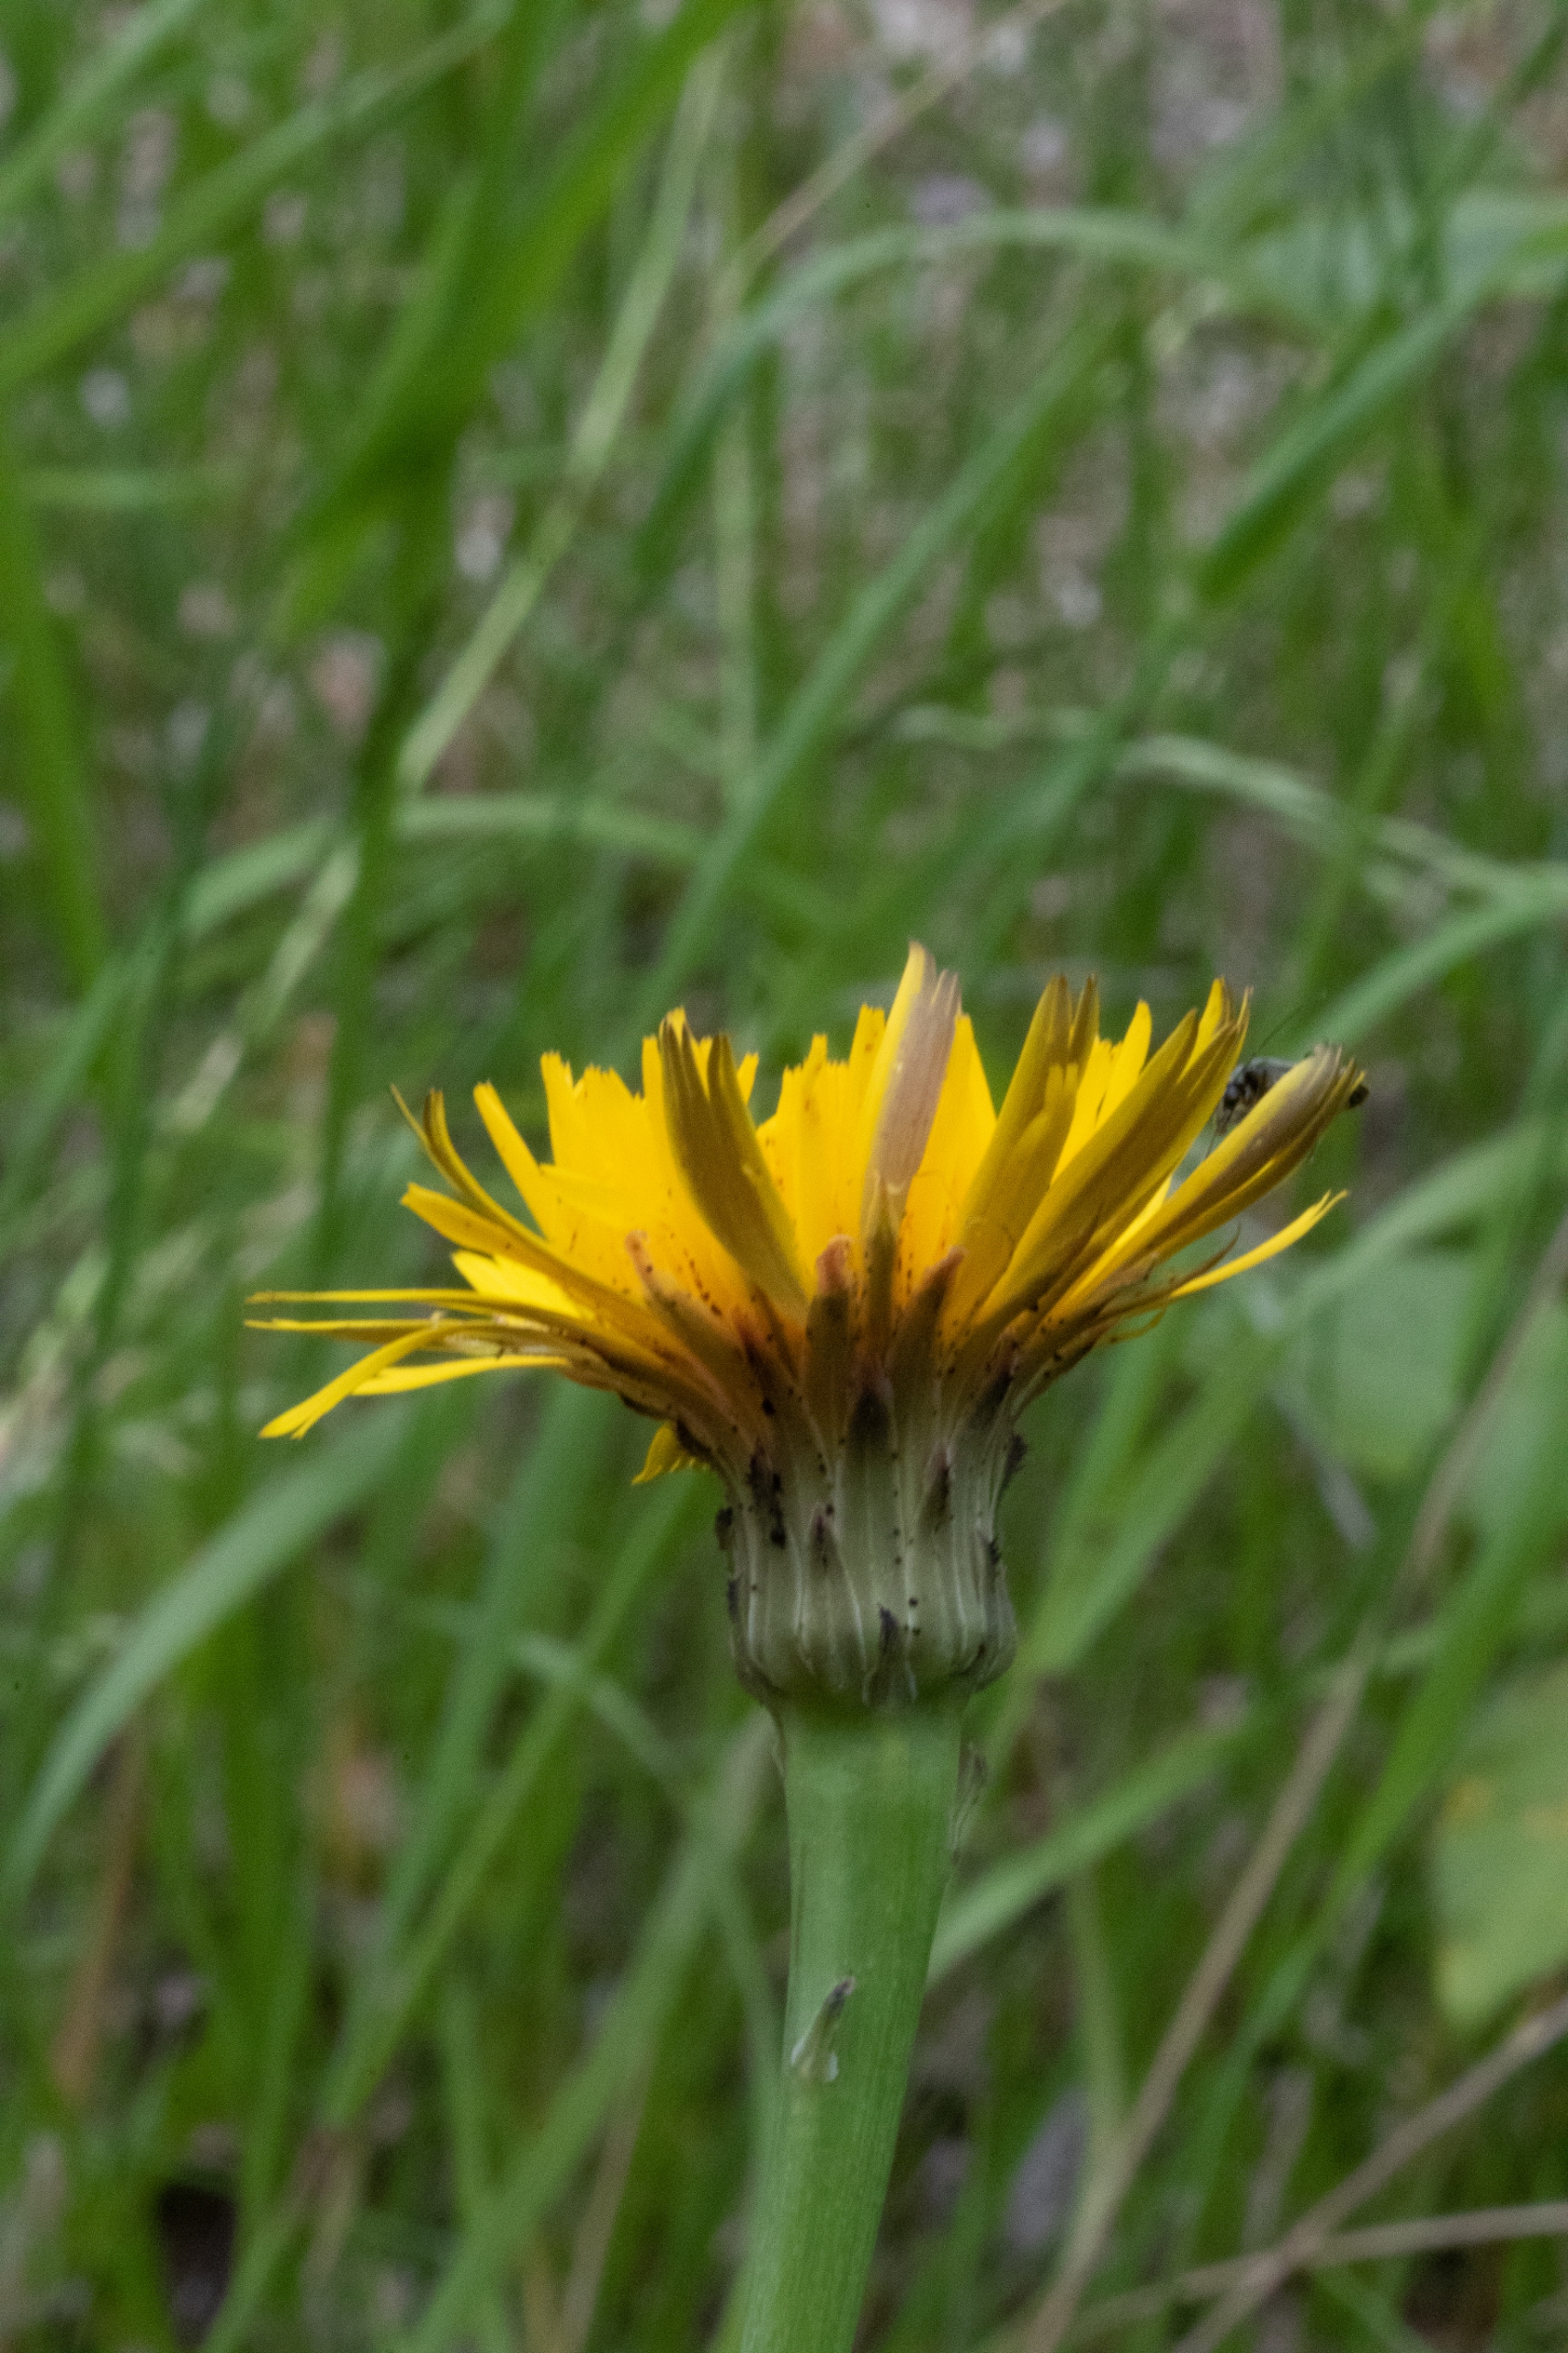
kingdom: Plantae
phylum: Tracheophyta
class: Magnoliopsida
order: Asterales
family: Asteraceae
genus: Hypochaeris
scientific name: Hypochaeris radicata
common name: Almindelig kongepen
